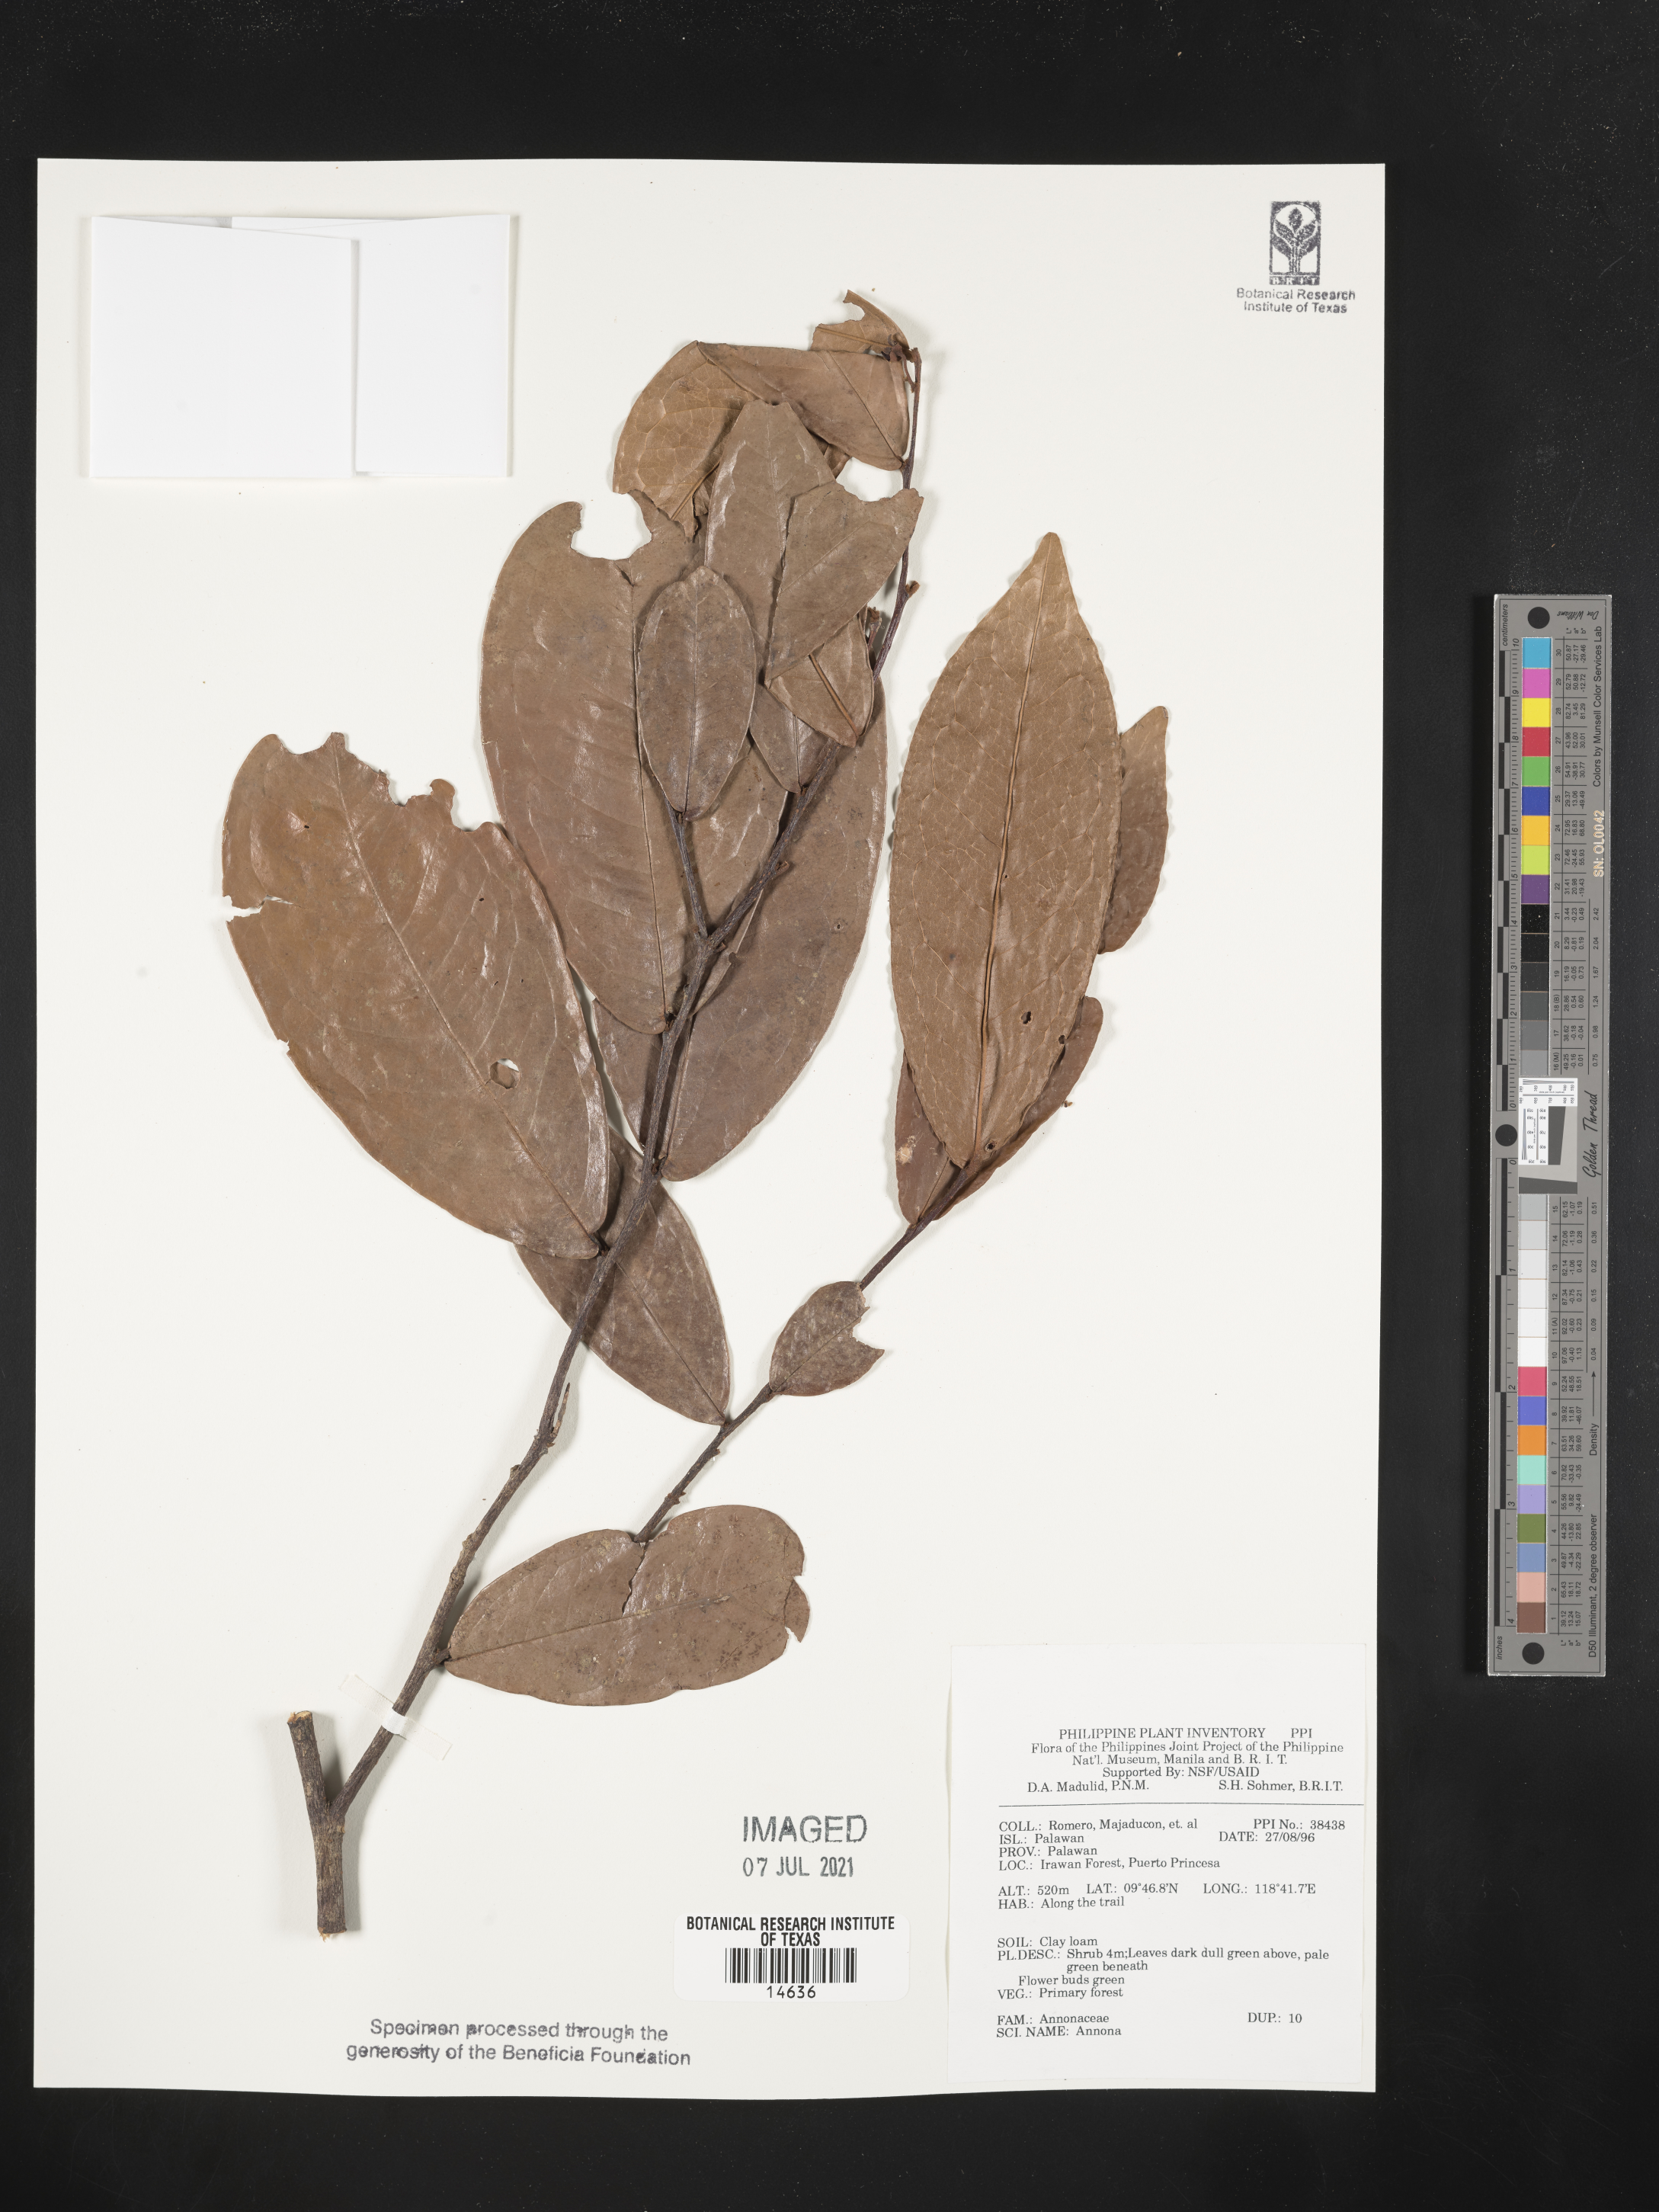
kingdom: Plantae
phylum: Tracheophyta
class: Magnoliopsida
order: Magnoliales
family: Annonaceae
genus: Annona
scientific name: Annona
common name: Anona
